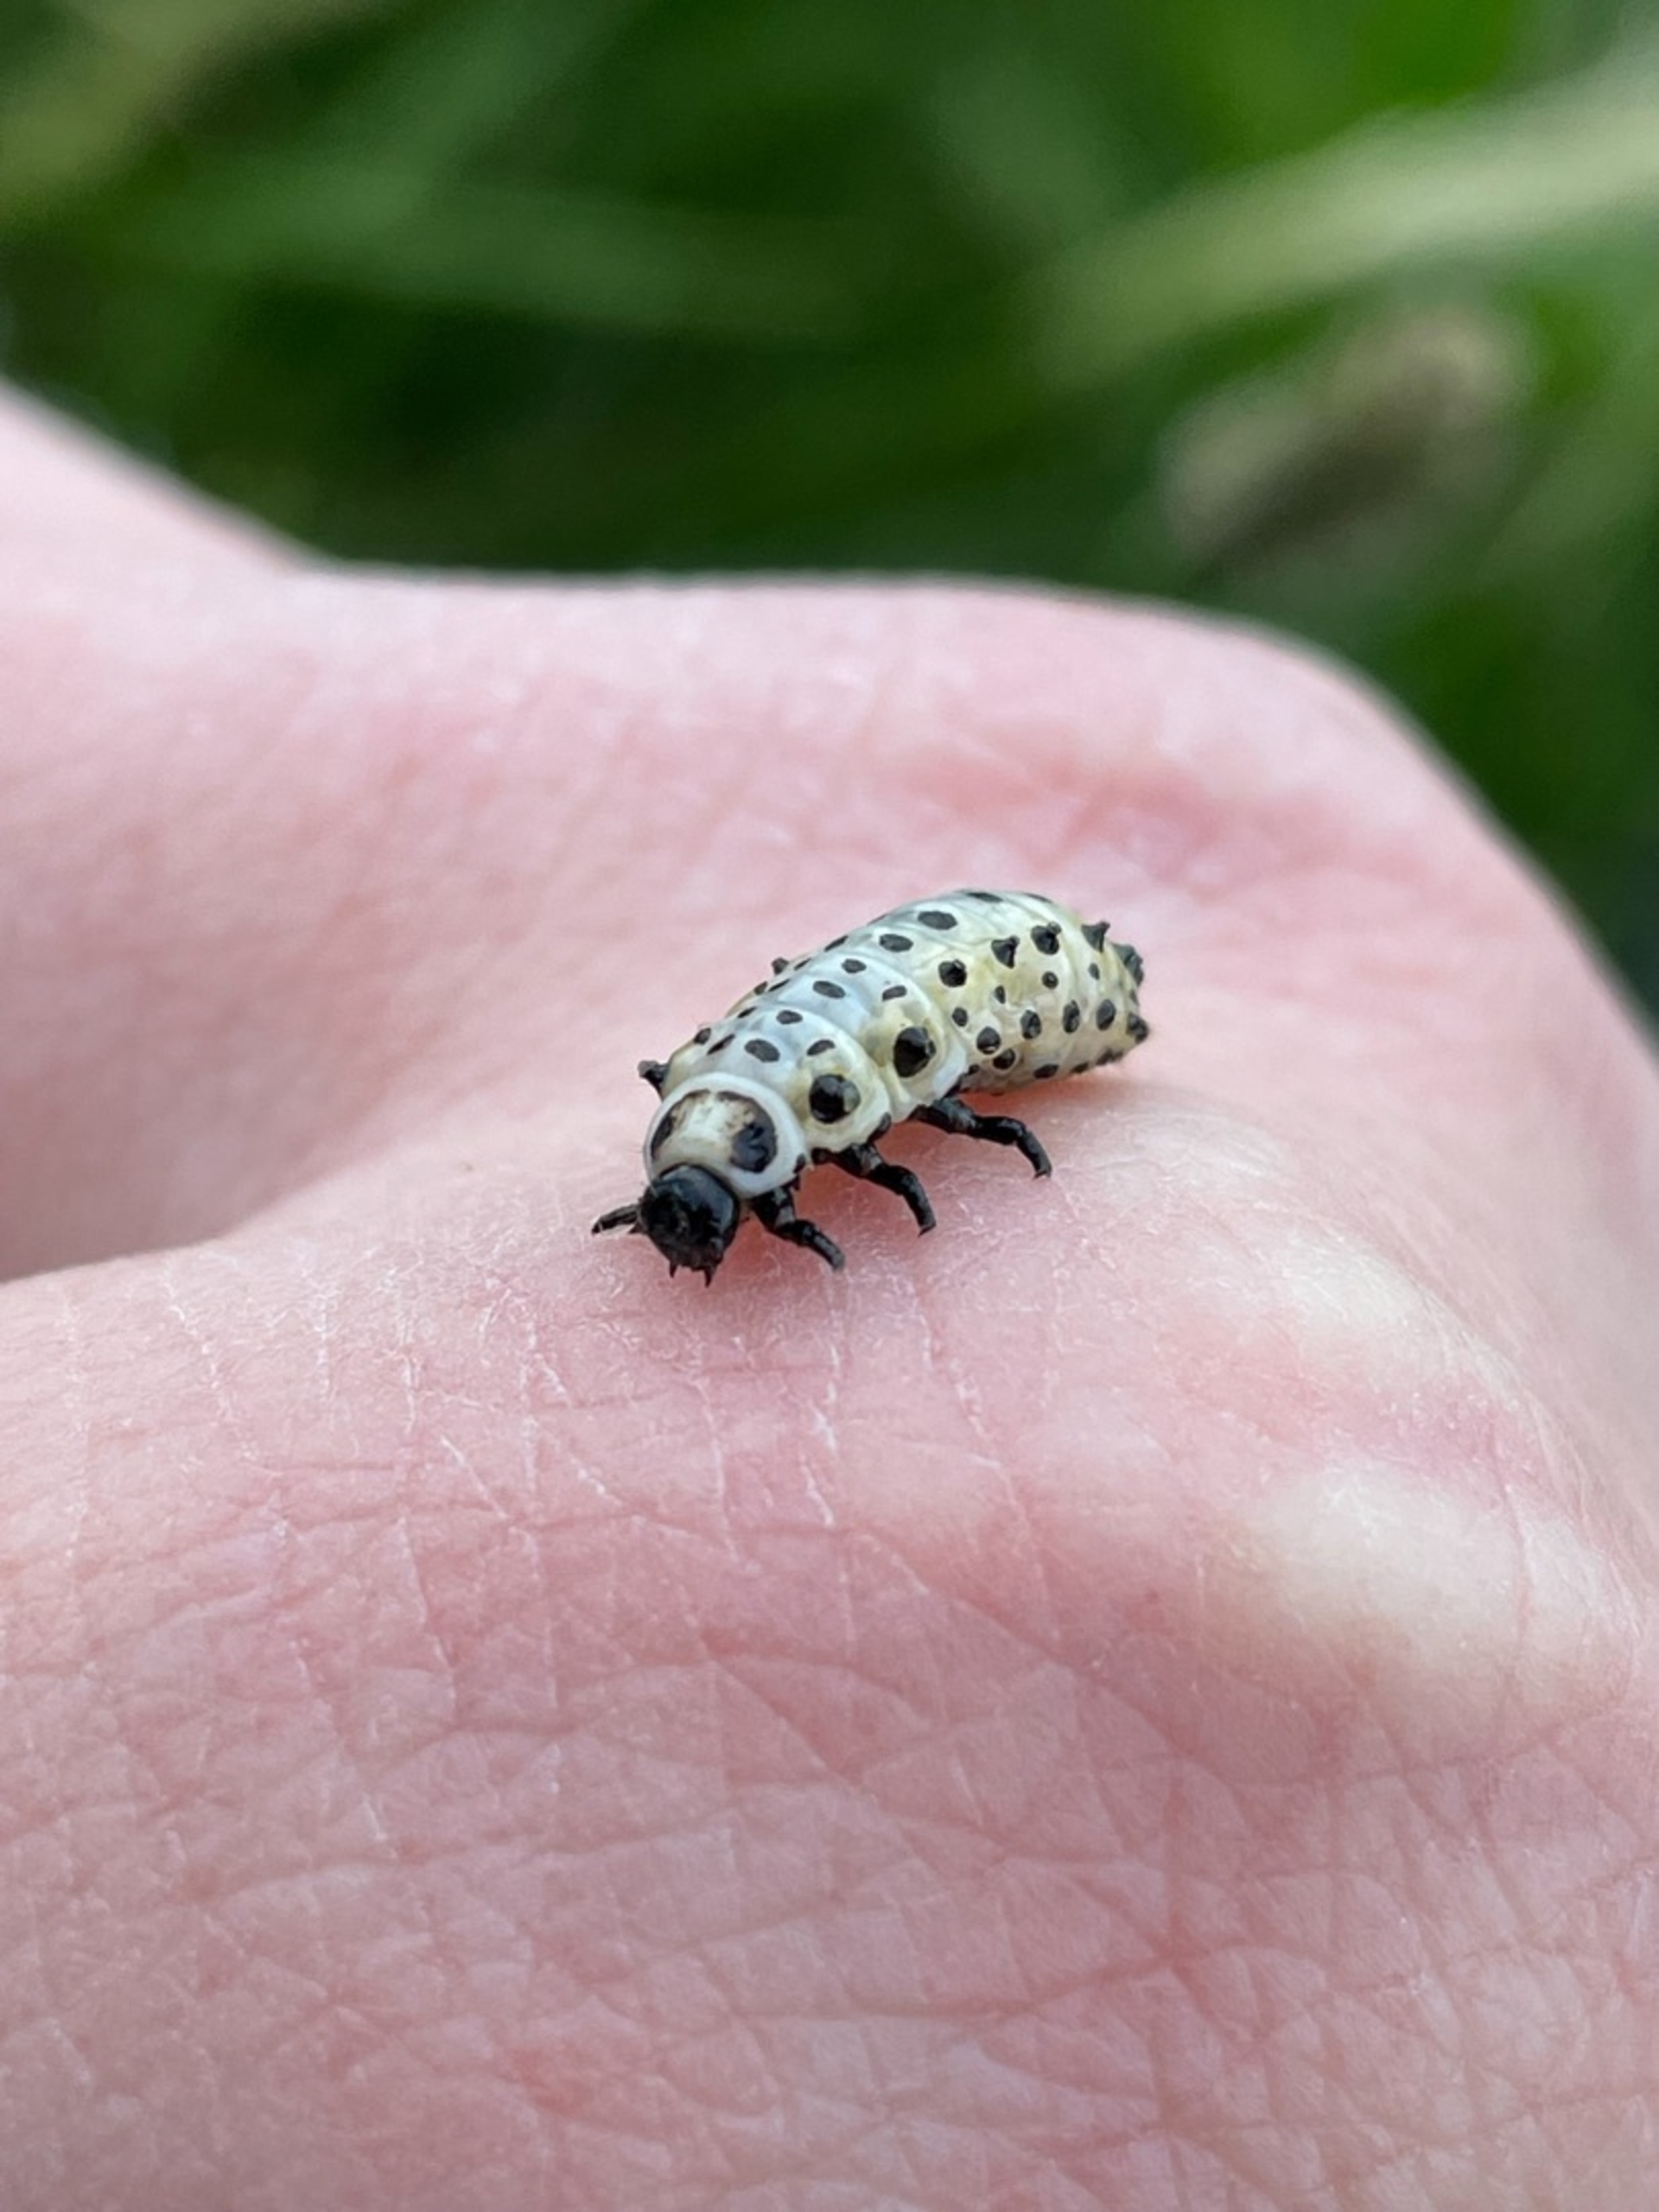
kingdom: Animalia
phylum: Arthropoda
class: Insecta
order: Coleoptera
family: Chrysomelidae
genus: Chrysomela
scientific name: Chrysomela populi
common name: Poppelbladbille
